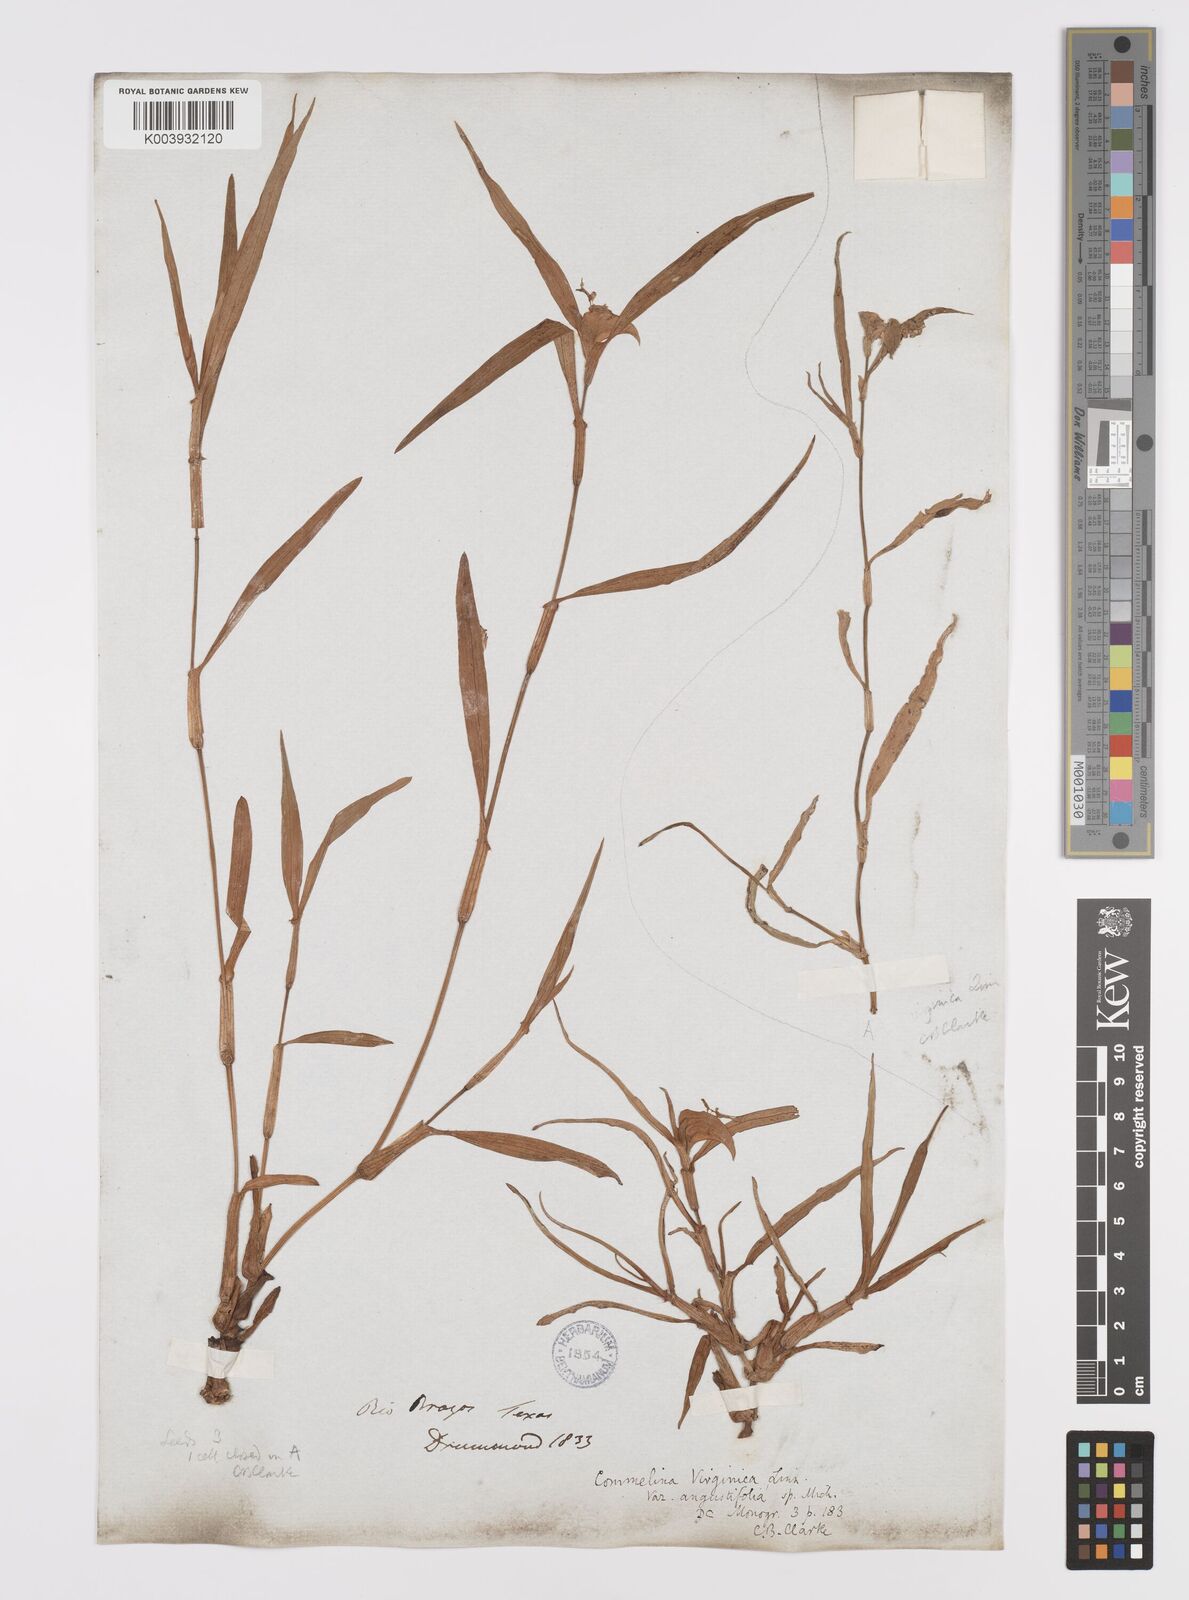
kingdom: Plantae
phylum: Tracheophyta
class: Liliopsida
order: Commelinales
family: Commelinaceae
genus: Commelina
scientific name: Commelina erecta
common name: Blousel blommetjie
